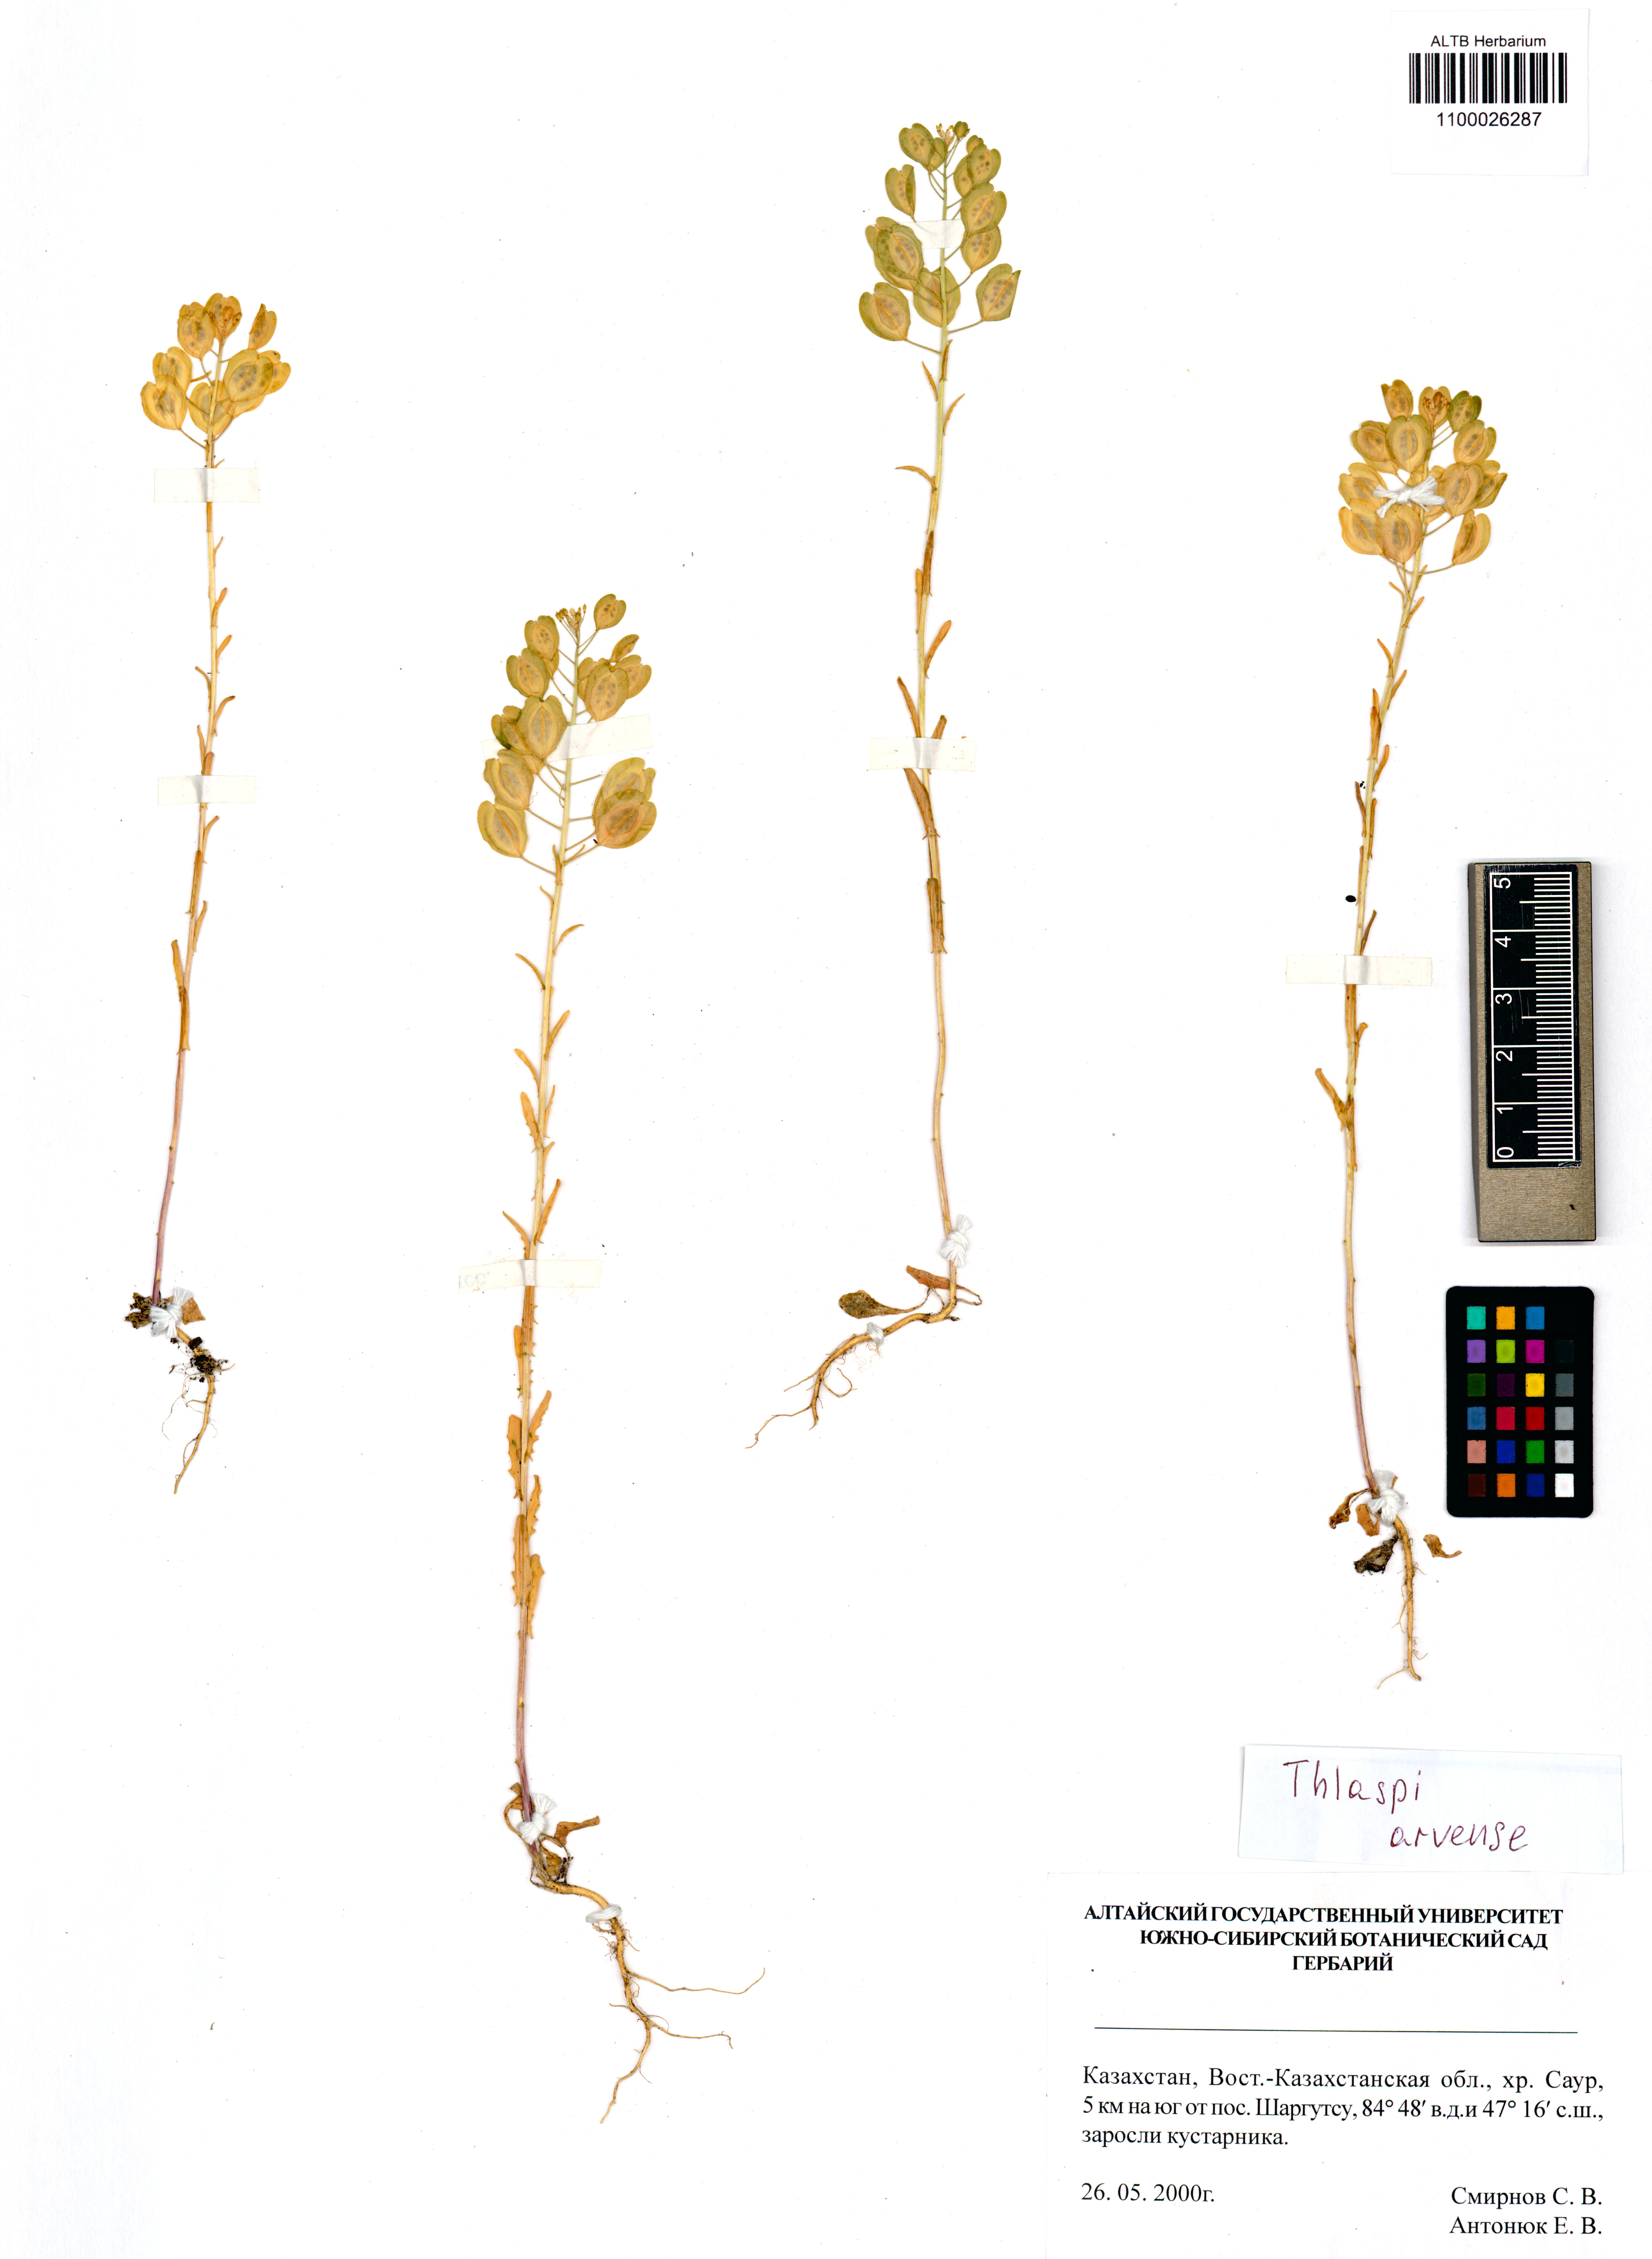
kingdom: Plantae
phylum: Tracheophyta
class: Magnoliopsida
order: Brassicales
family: Brassicaceae
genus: Thlaspi
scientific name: Thlaspi arvense
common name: Field pennycress
